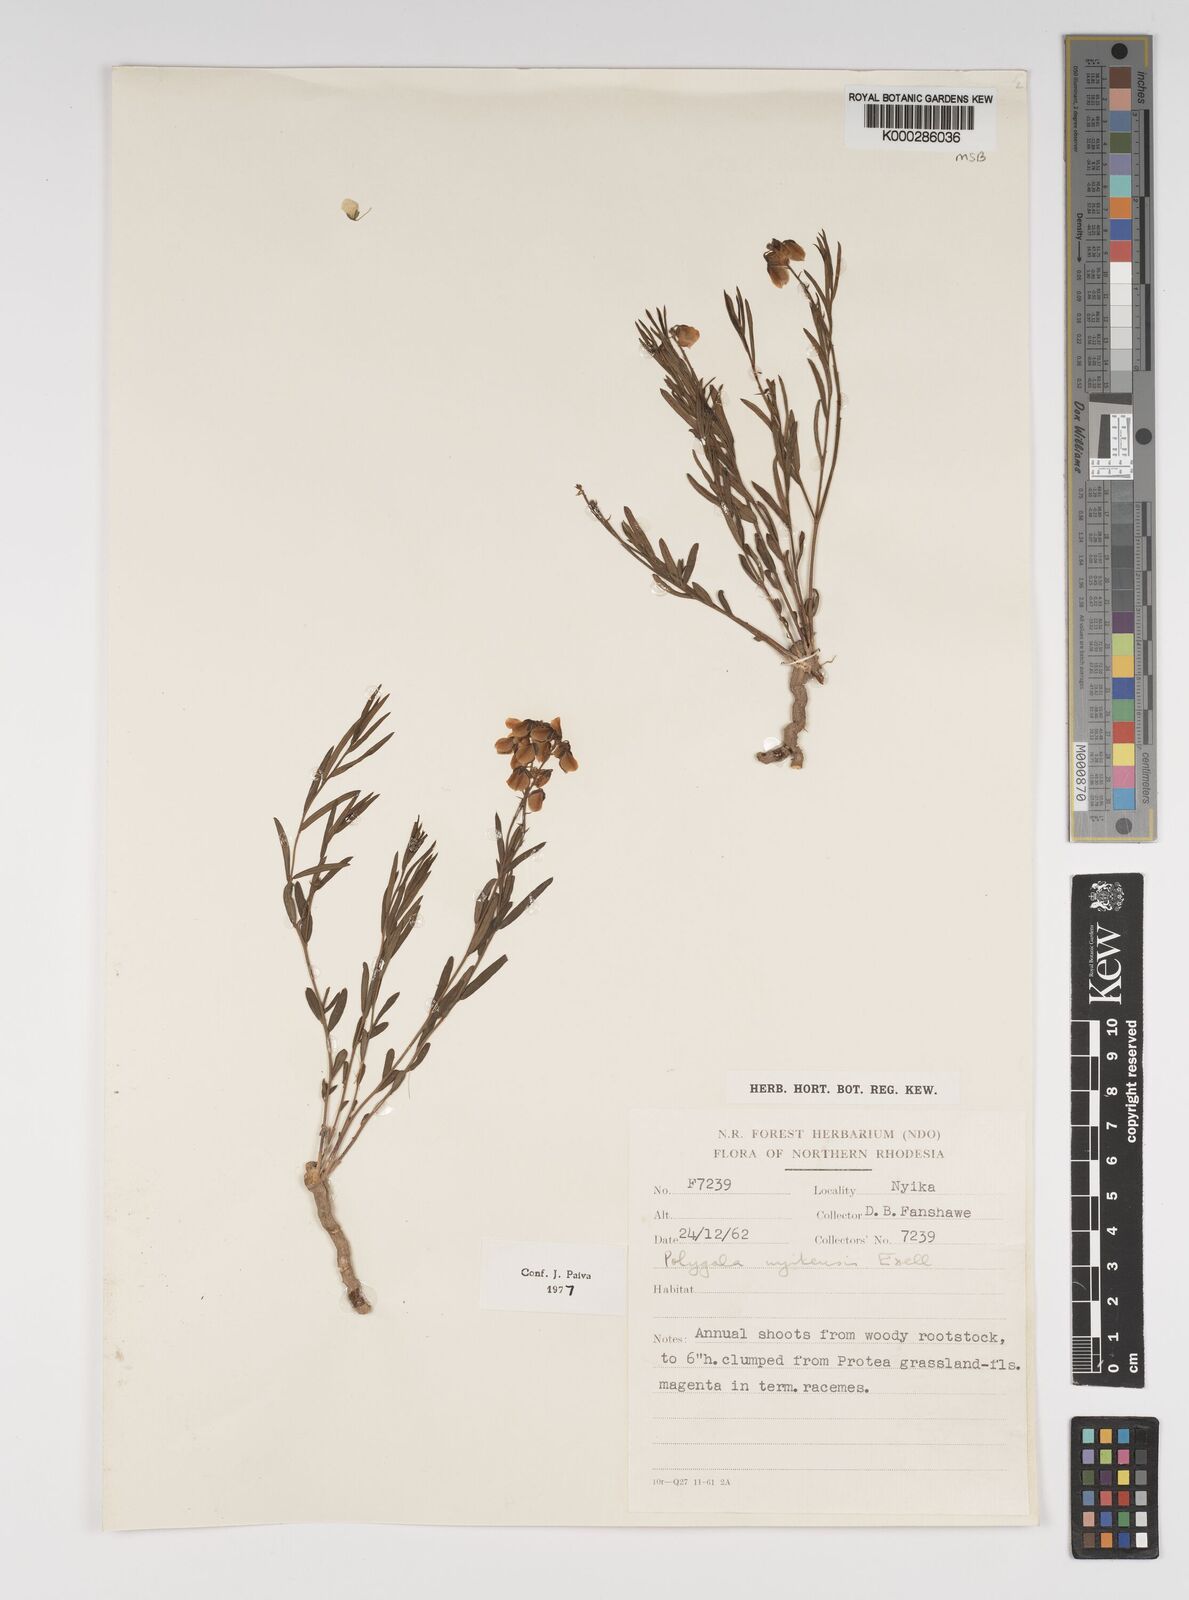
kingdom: Plantae
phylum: Tracheophyta
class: Magnoliopsida
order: Fabales
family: Polygalaceae
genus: Polygala
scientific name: Polygala nyikensis
